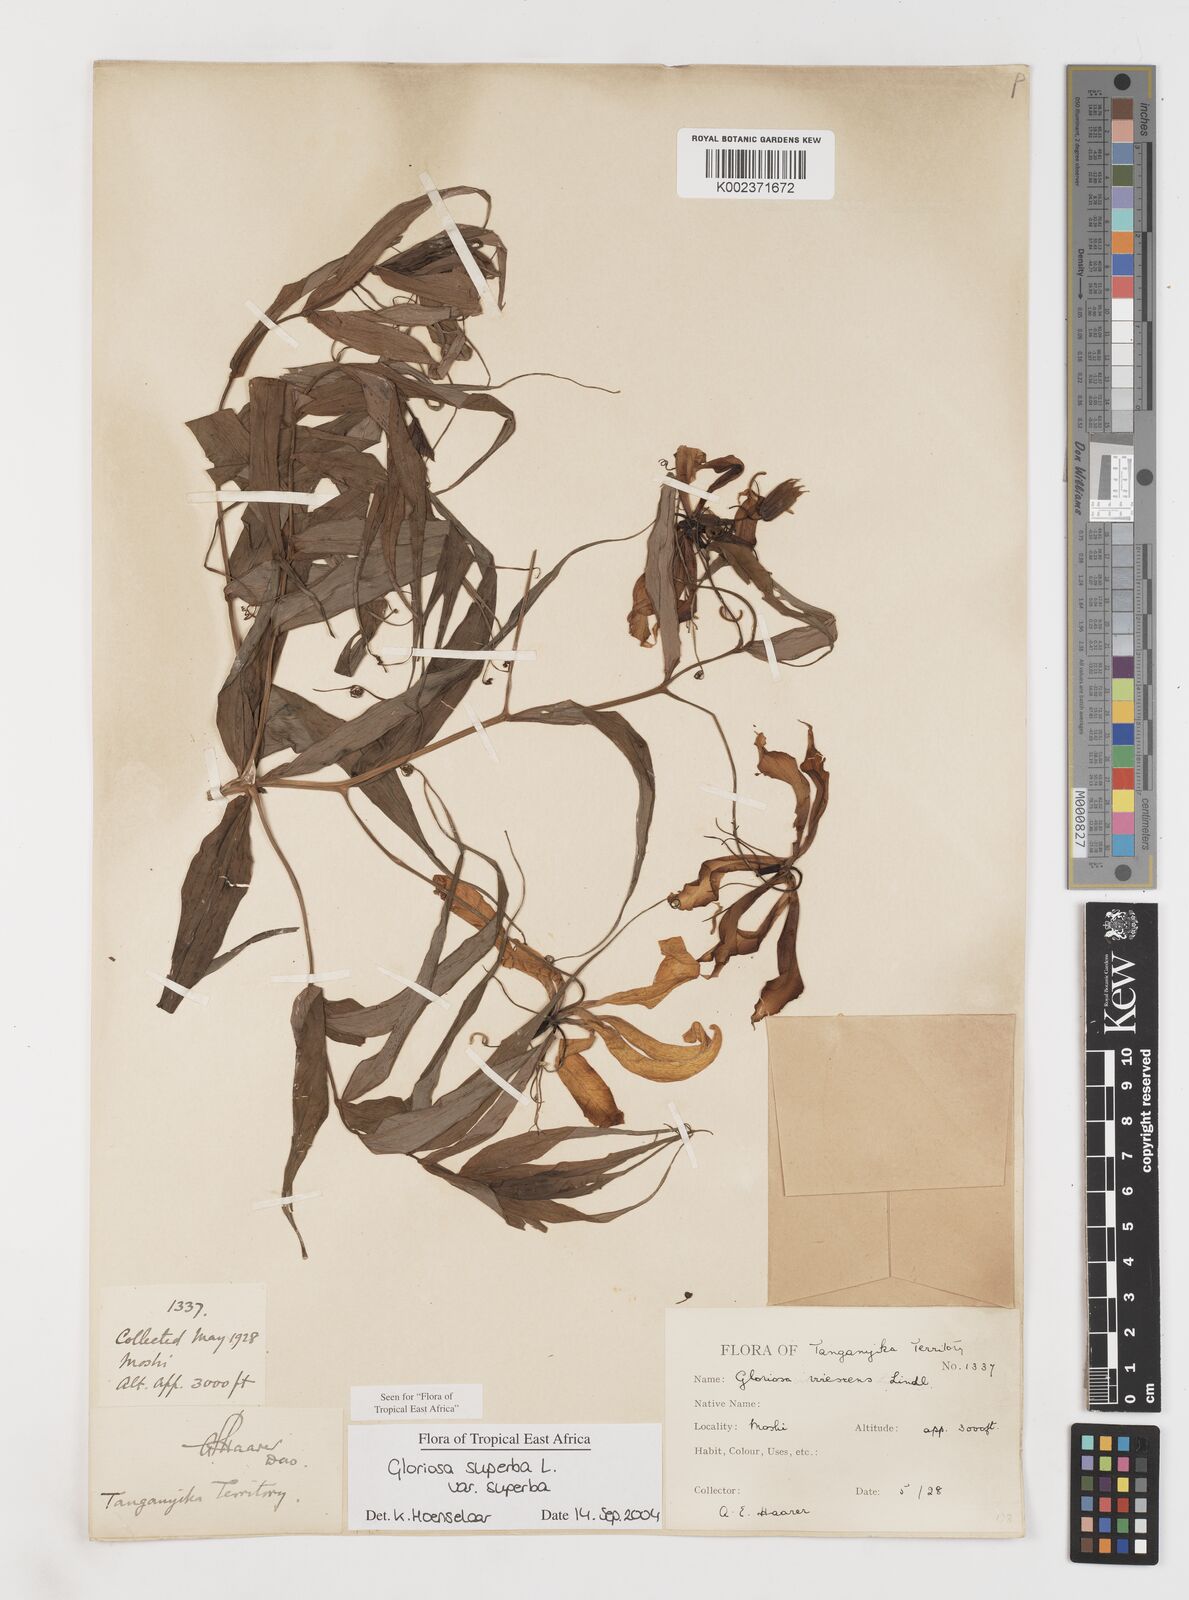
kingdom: Plantae
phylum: Tracheophyta
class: Liliopsida
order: Liliales
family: Colchicaceae
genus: Gloriosa
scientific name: Gloriosa simplex
